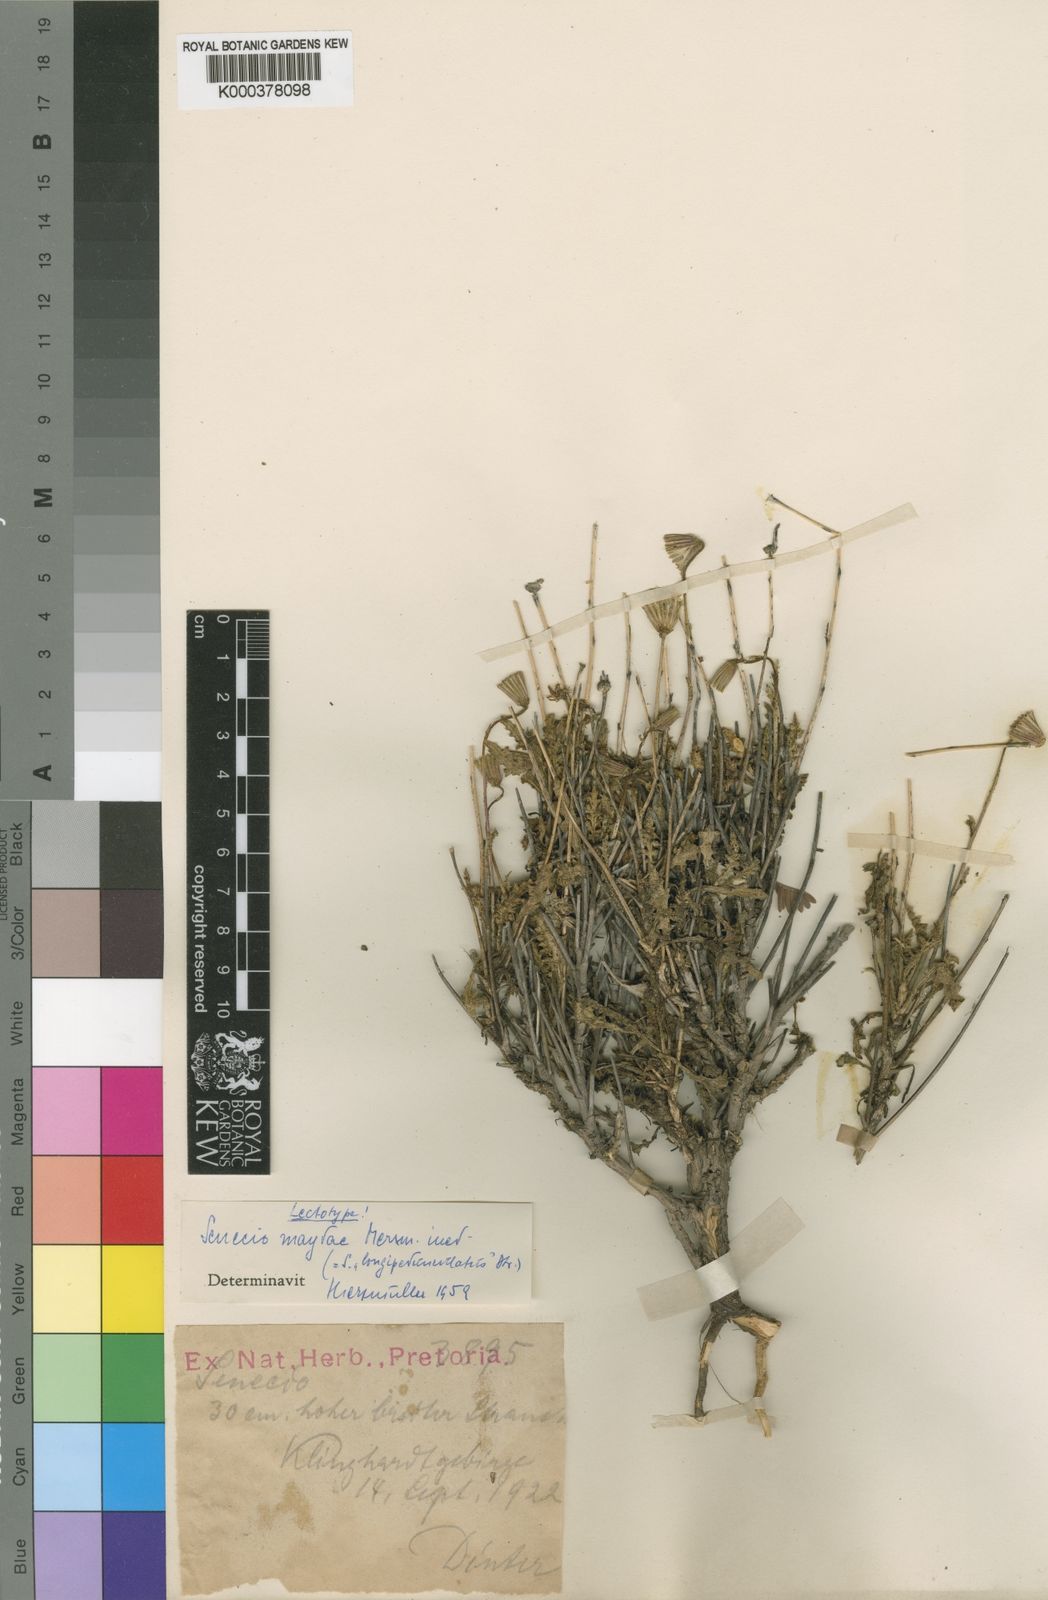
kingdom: Plantae
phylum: Tracheophyta
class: Magnoliopsida
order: Asterales
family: Asteraceae
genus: Senecio
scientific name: Senecio maydae
